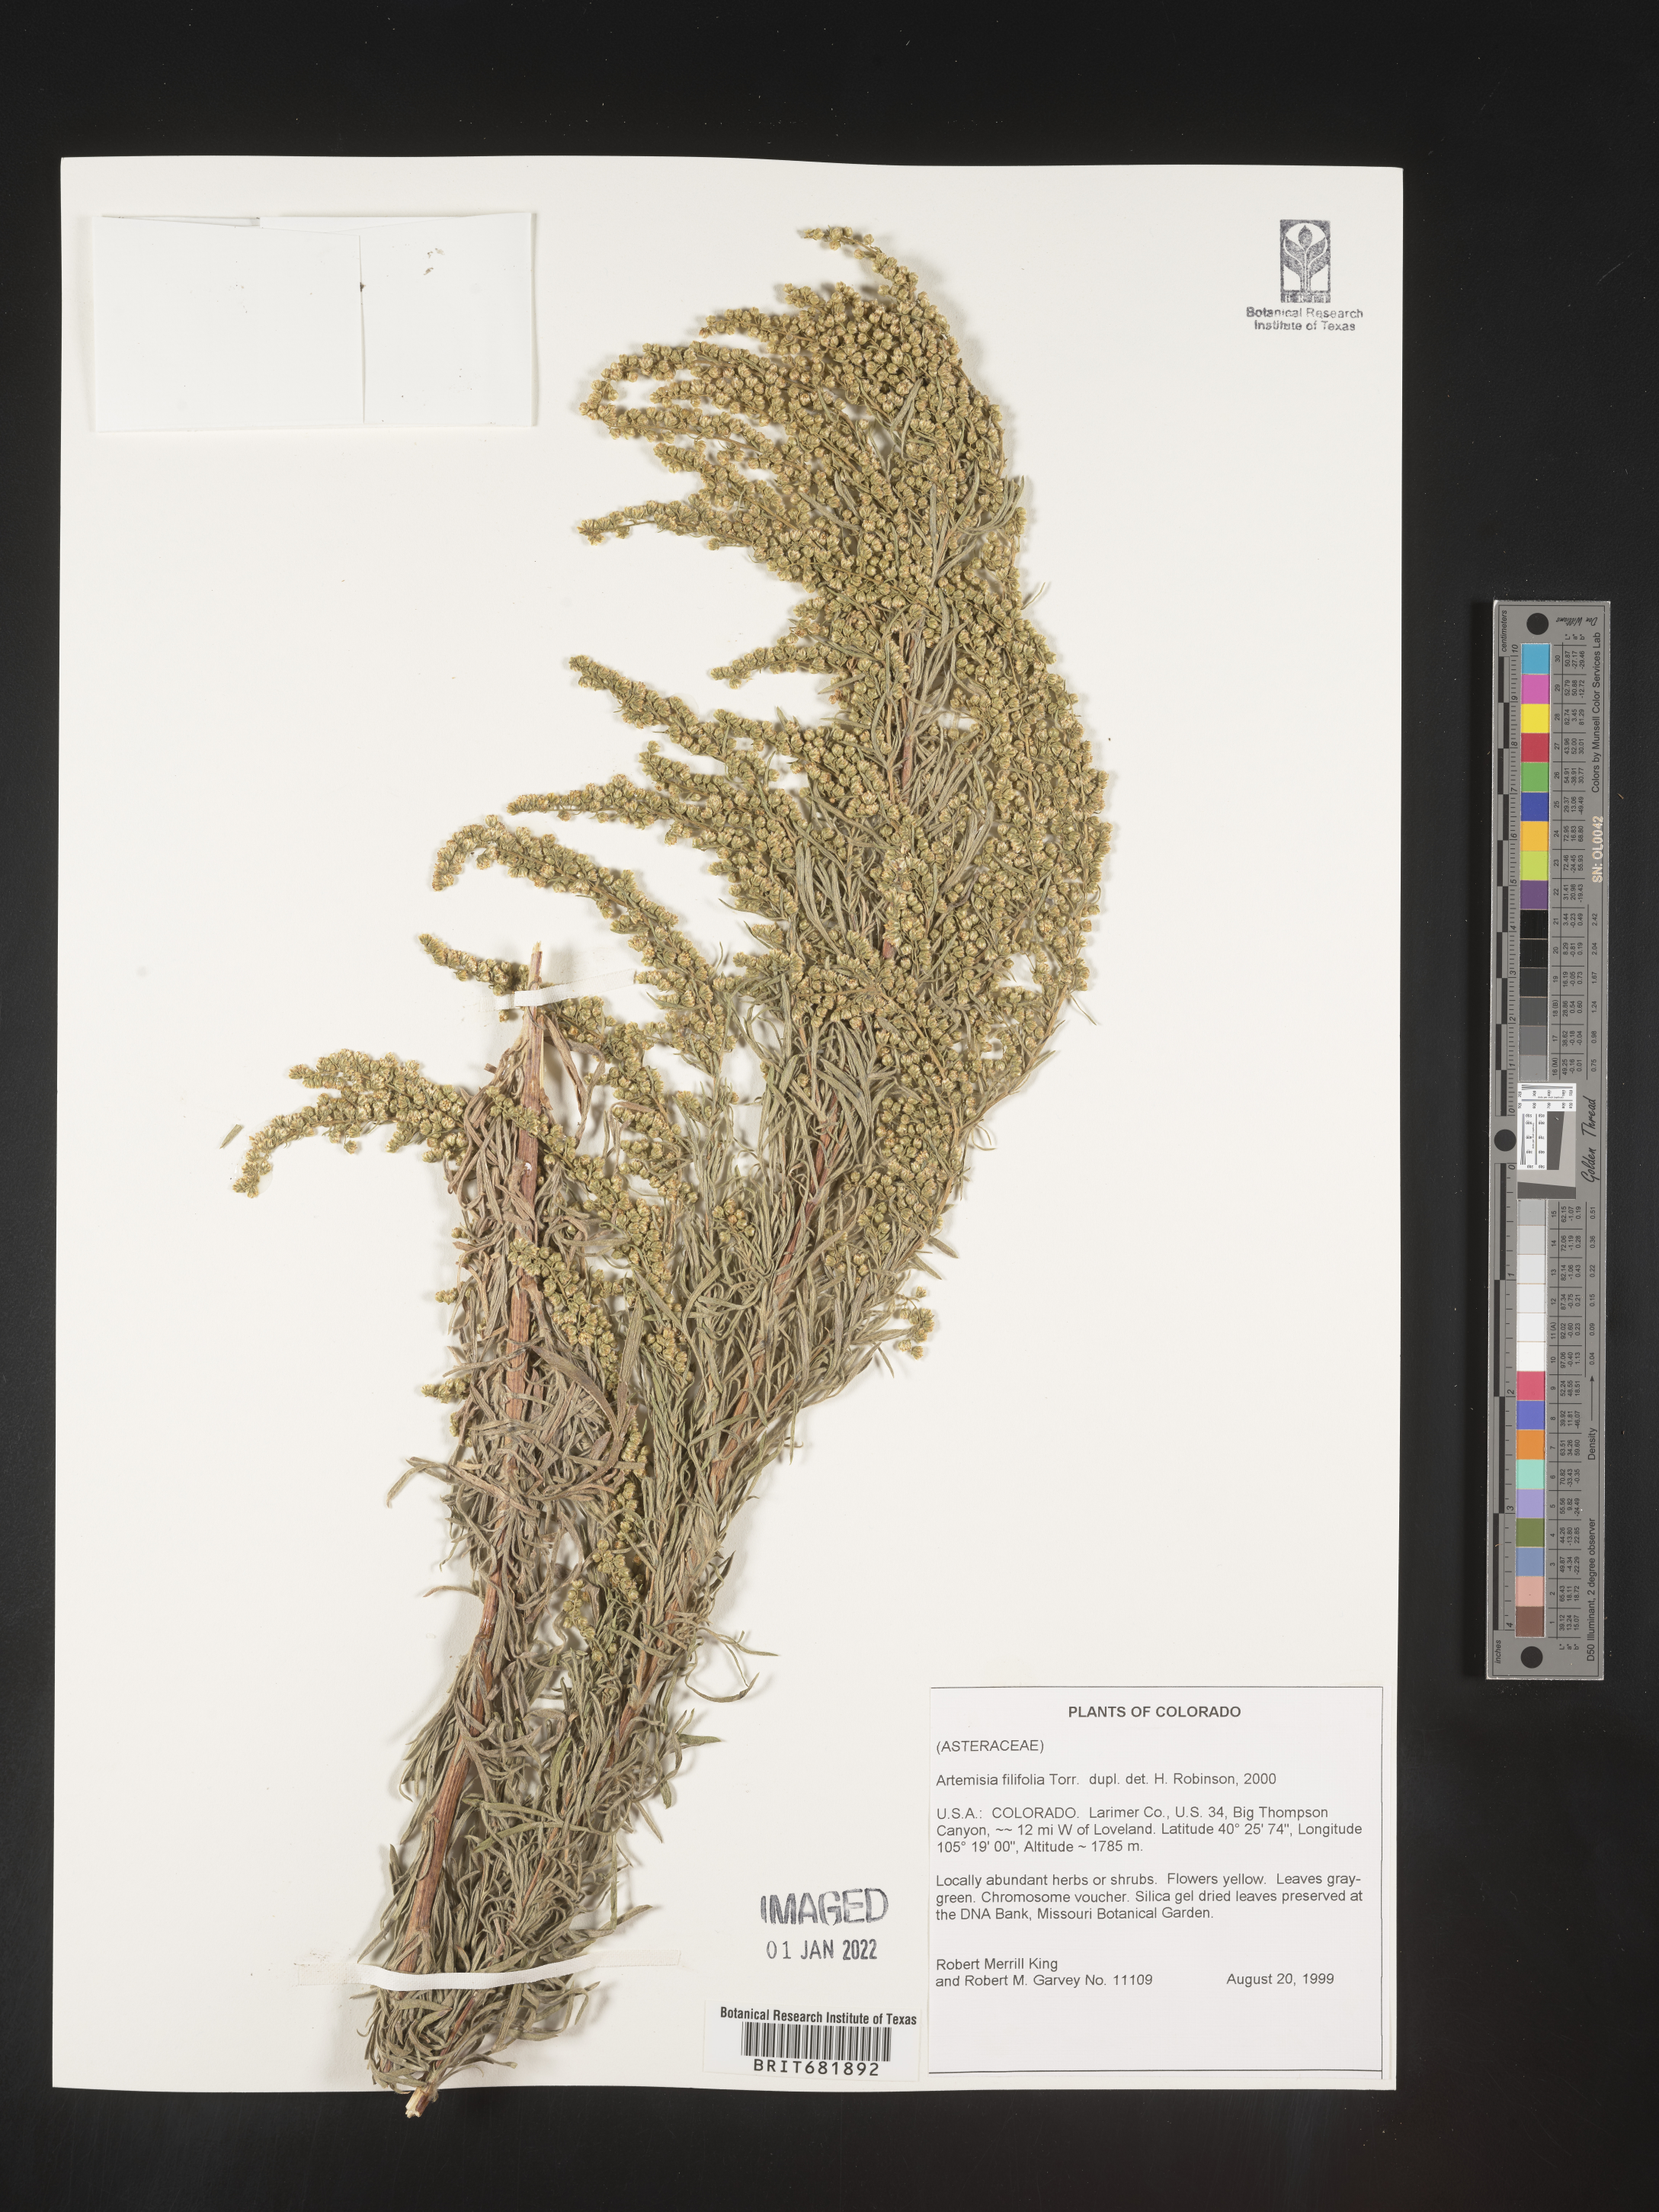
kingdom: Plantae
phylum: Tracheophyta
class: Magnoliopsida
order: Asterales
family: Asteraceae
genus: Artemisia
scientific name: Artemisia filifolia
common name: Sand-sage
